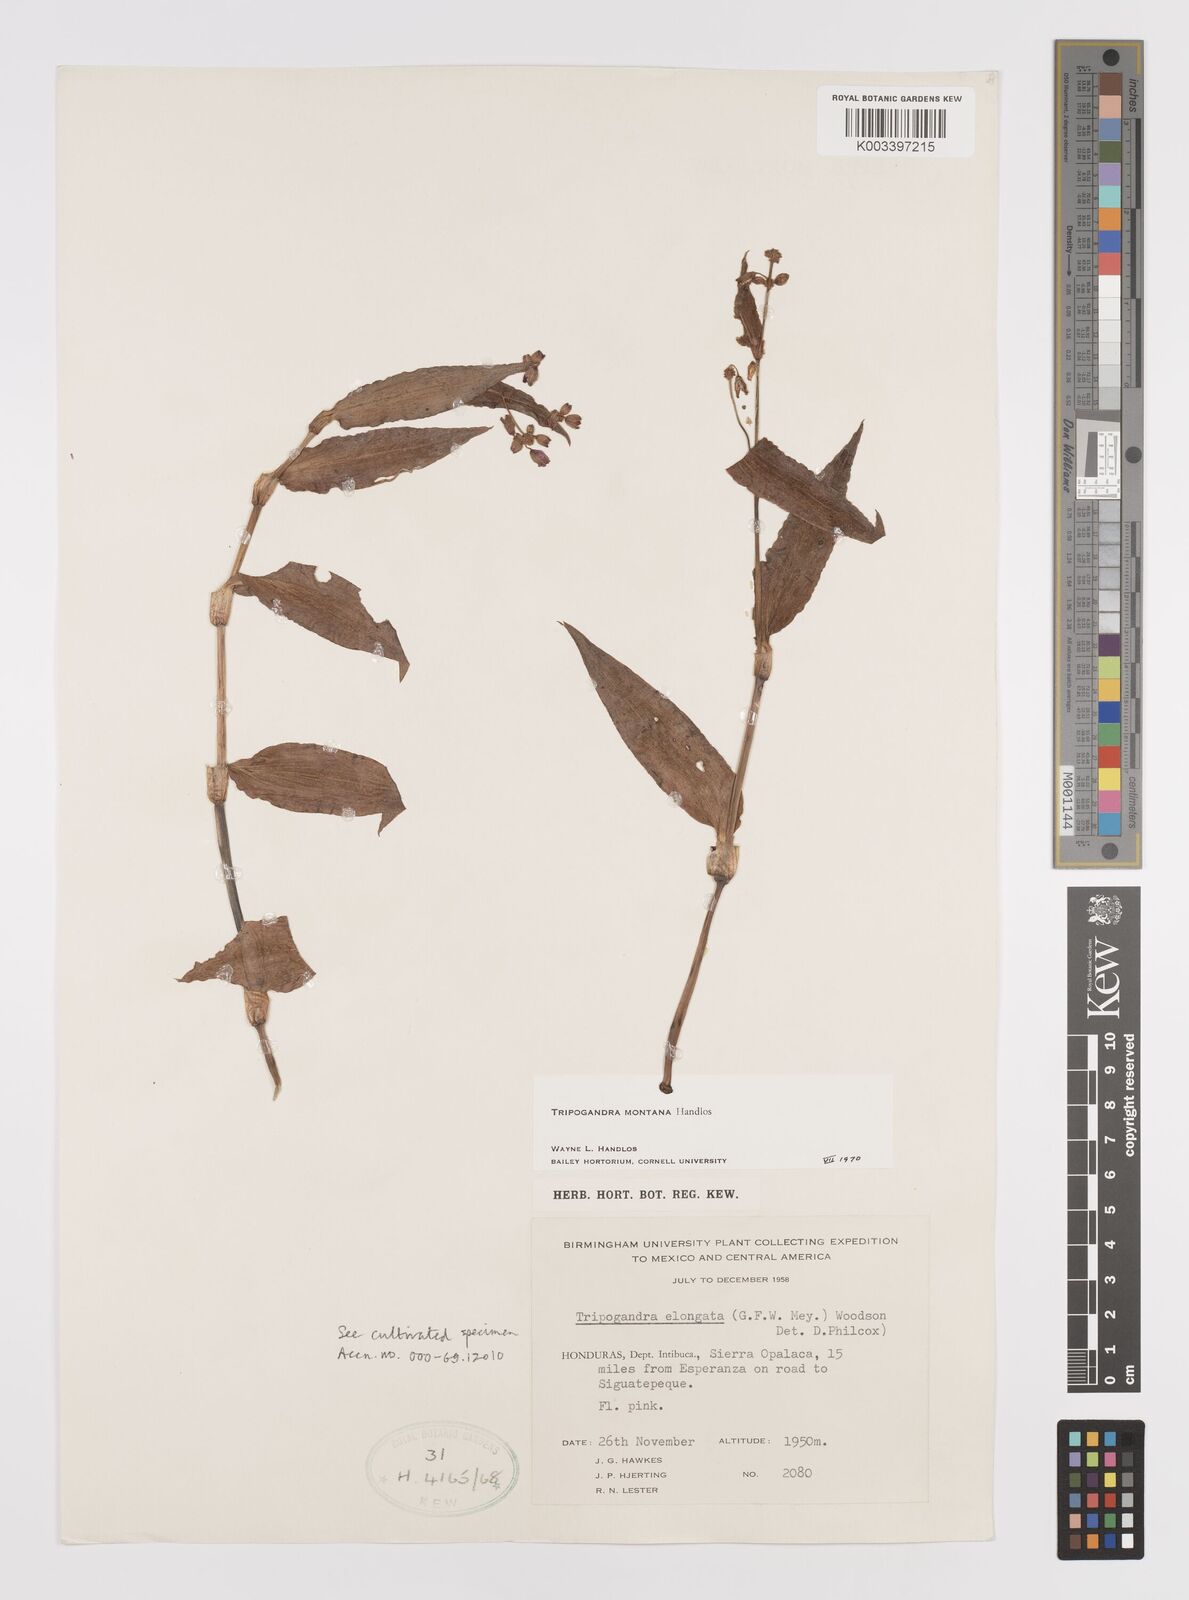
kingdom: Plantae
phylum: Tracheophyta
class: Liliopsida
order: Commelinales
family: Commelinaceae
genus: Callisia
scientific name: Callisia diuretica
